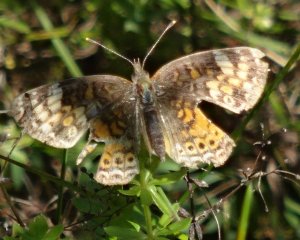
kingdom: Animalia
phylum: Arthropoda
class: Insecta
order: Lepidoptera
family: Nymphalidae
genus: Phyciodes
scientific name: Phyciodes tharos
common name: Northern Crescent
